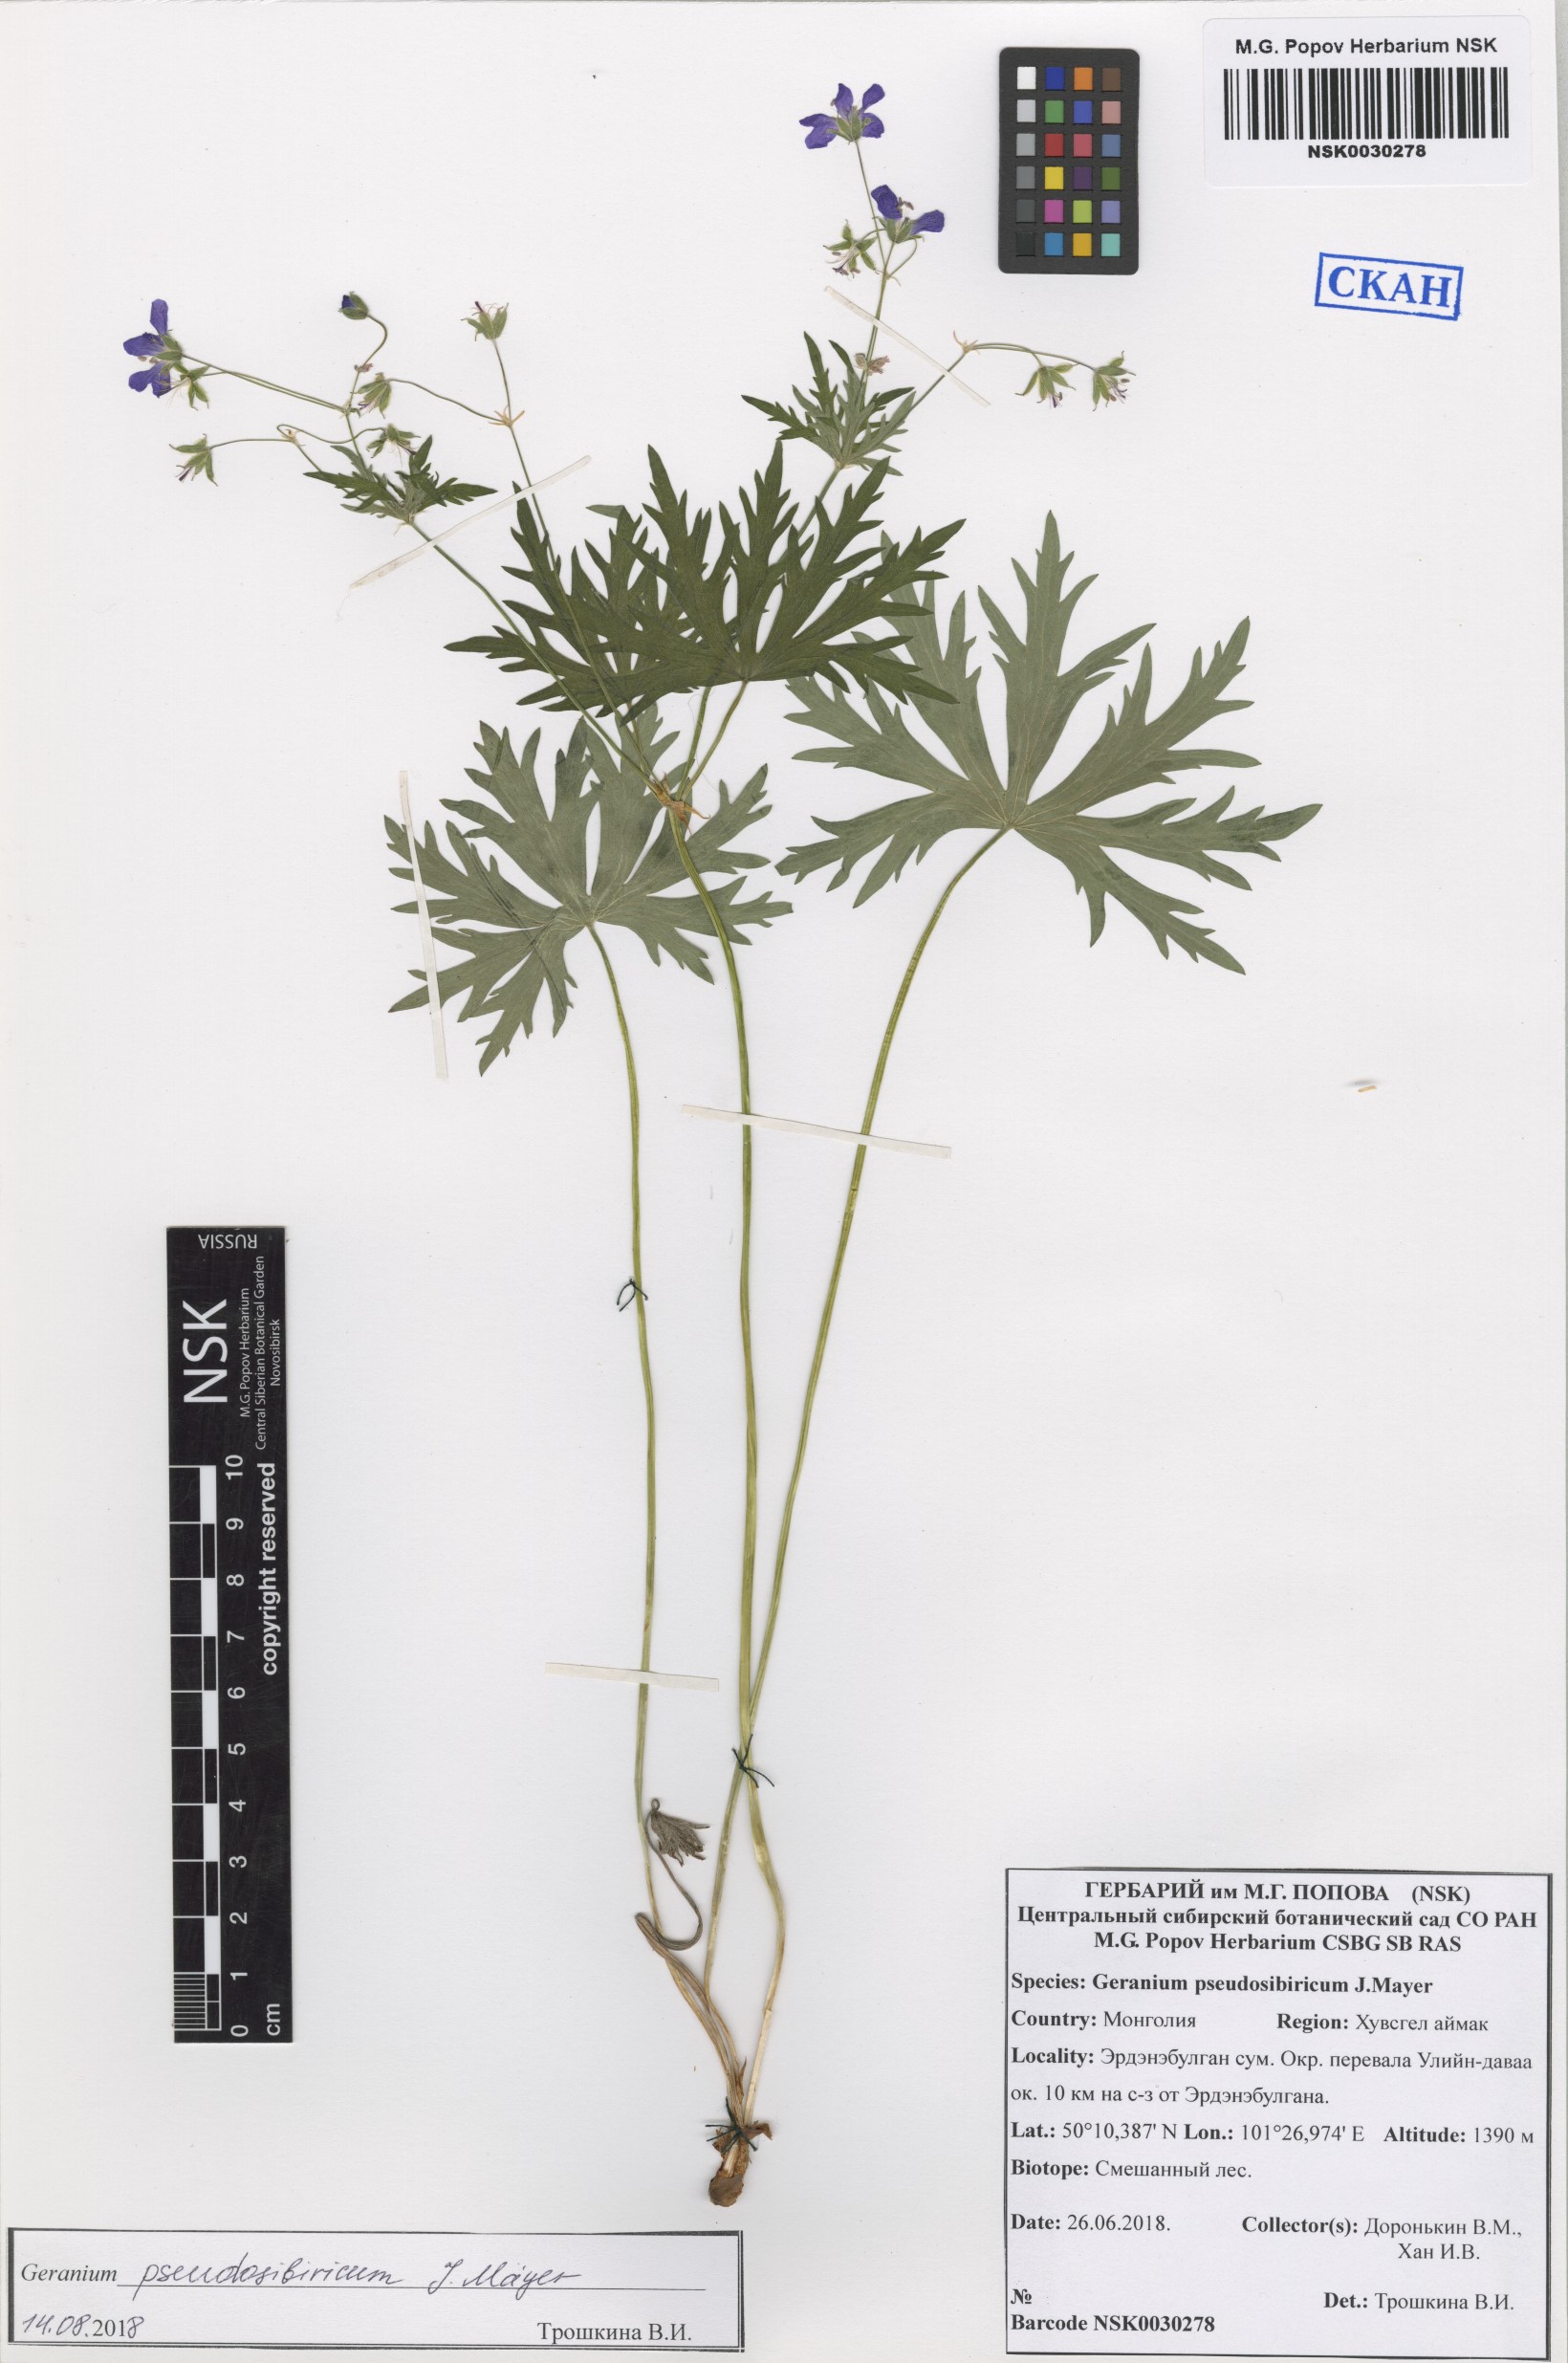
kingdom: Plantae
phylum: Tracheophyta
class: Magnoliopsida
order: Geraniales
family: Geraniaceae
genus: Geranium
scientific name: Geranium pseudosibiricum
